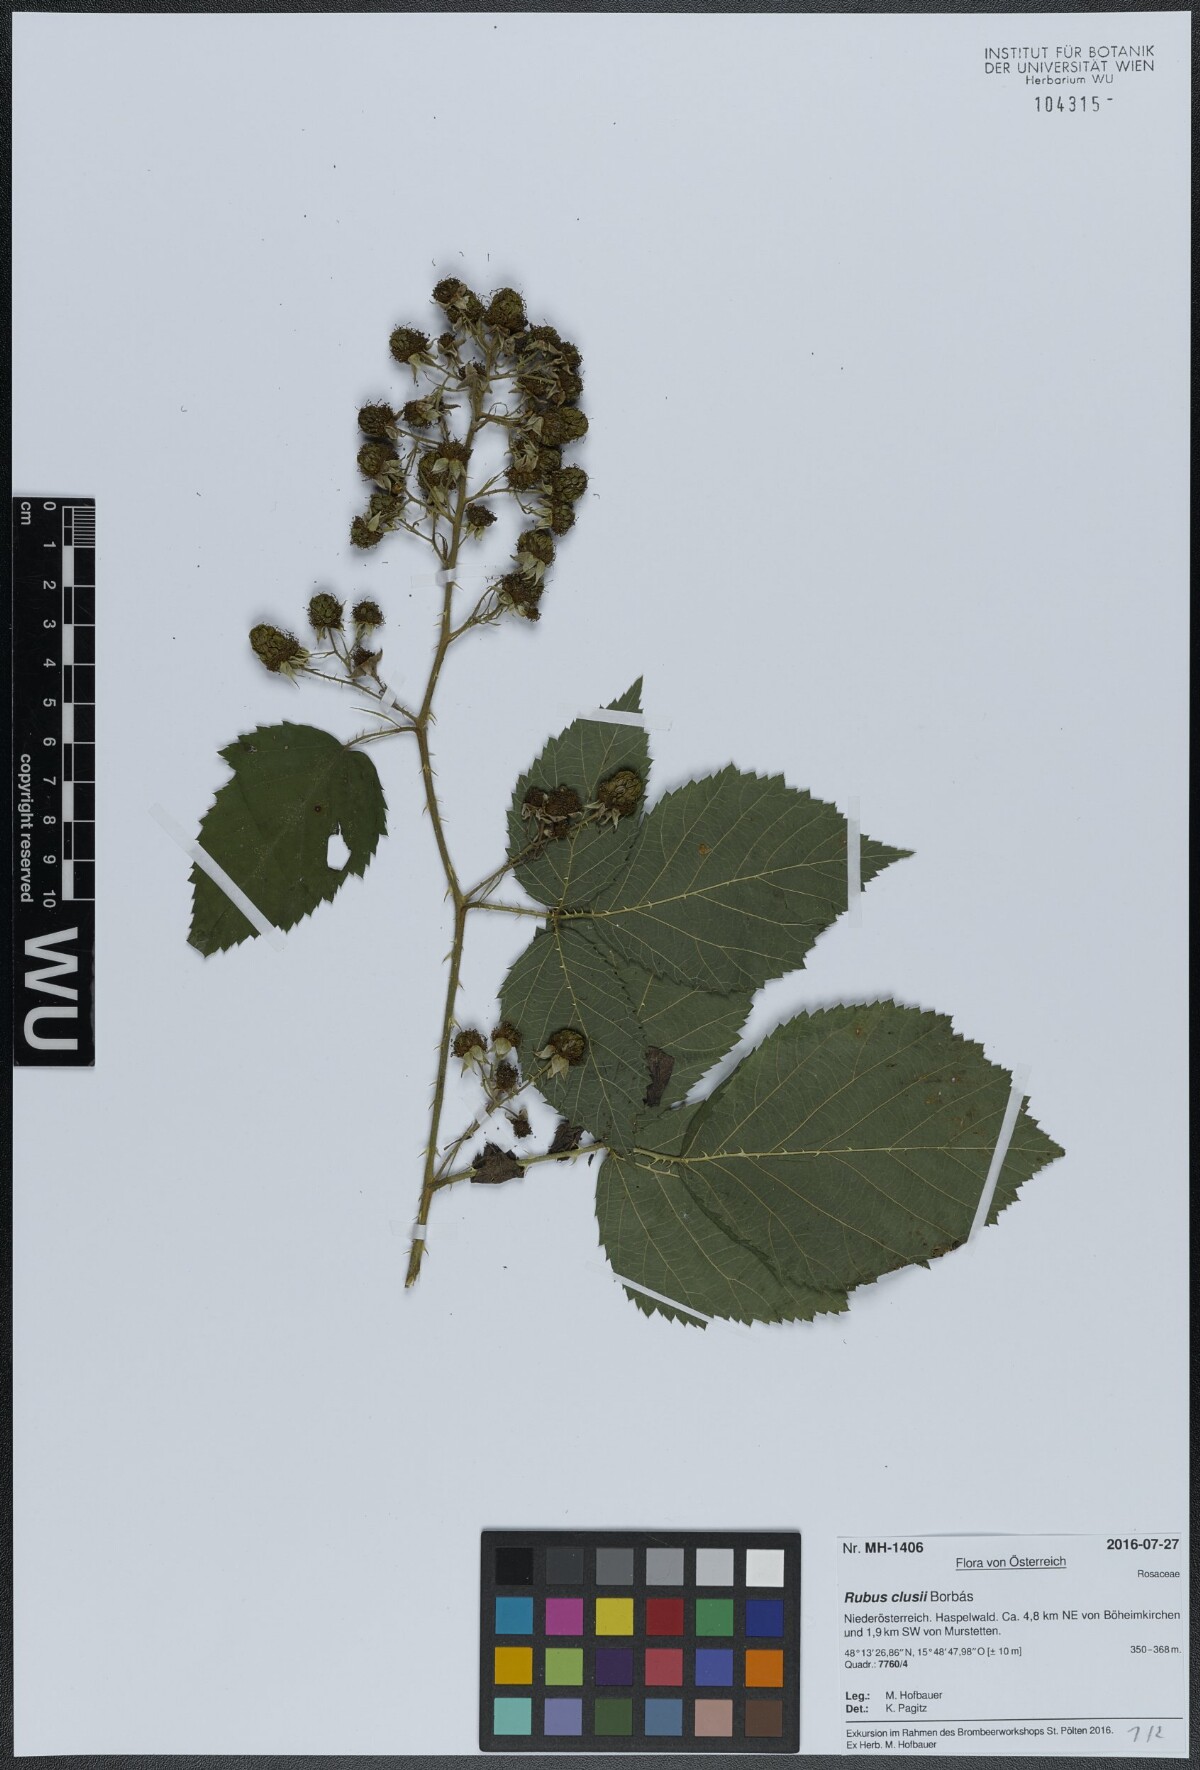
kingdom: Plantae
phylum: Tracheophyta
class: Magnoliopsida
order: Rosales
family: Rosaceae
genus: Rubus
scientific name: Rubus clusii
